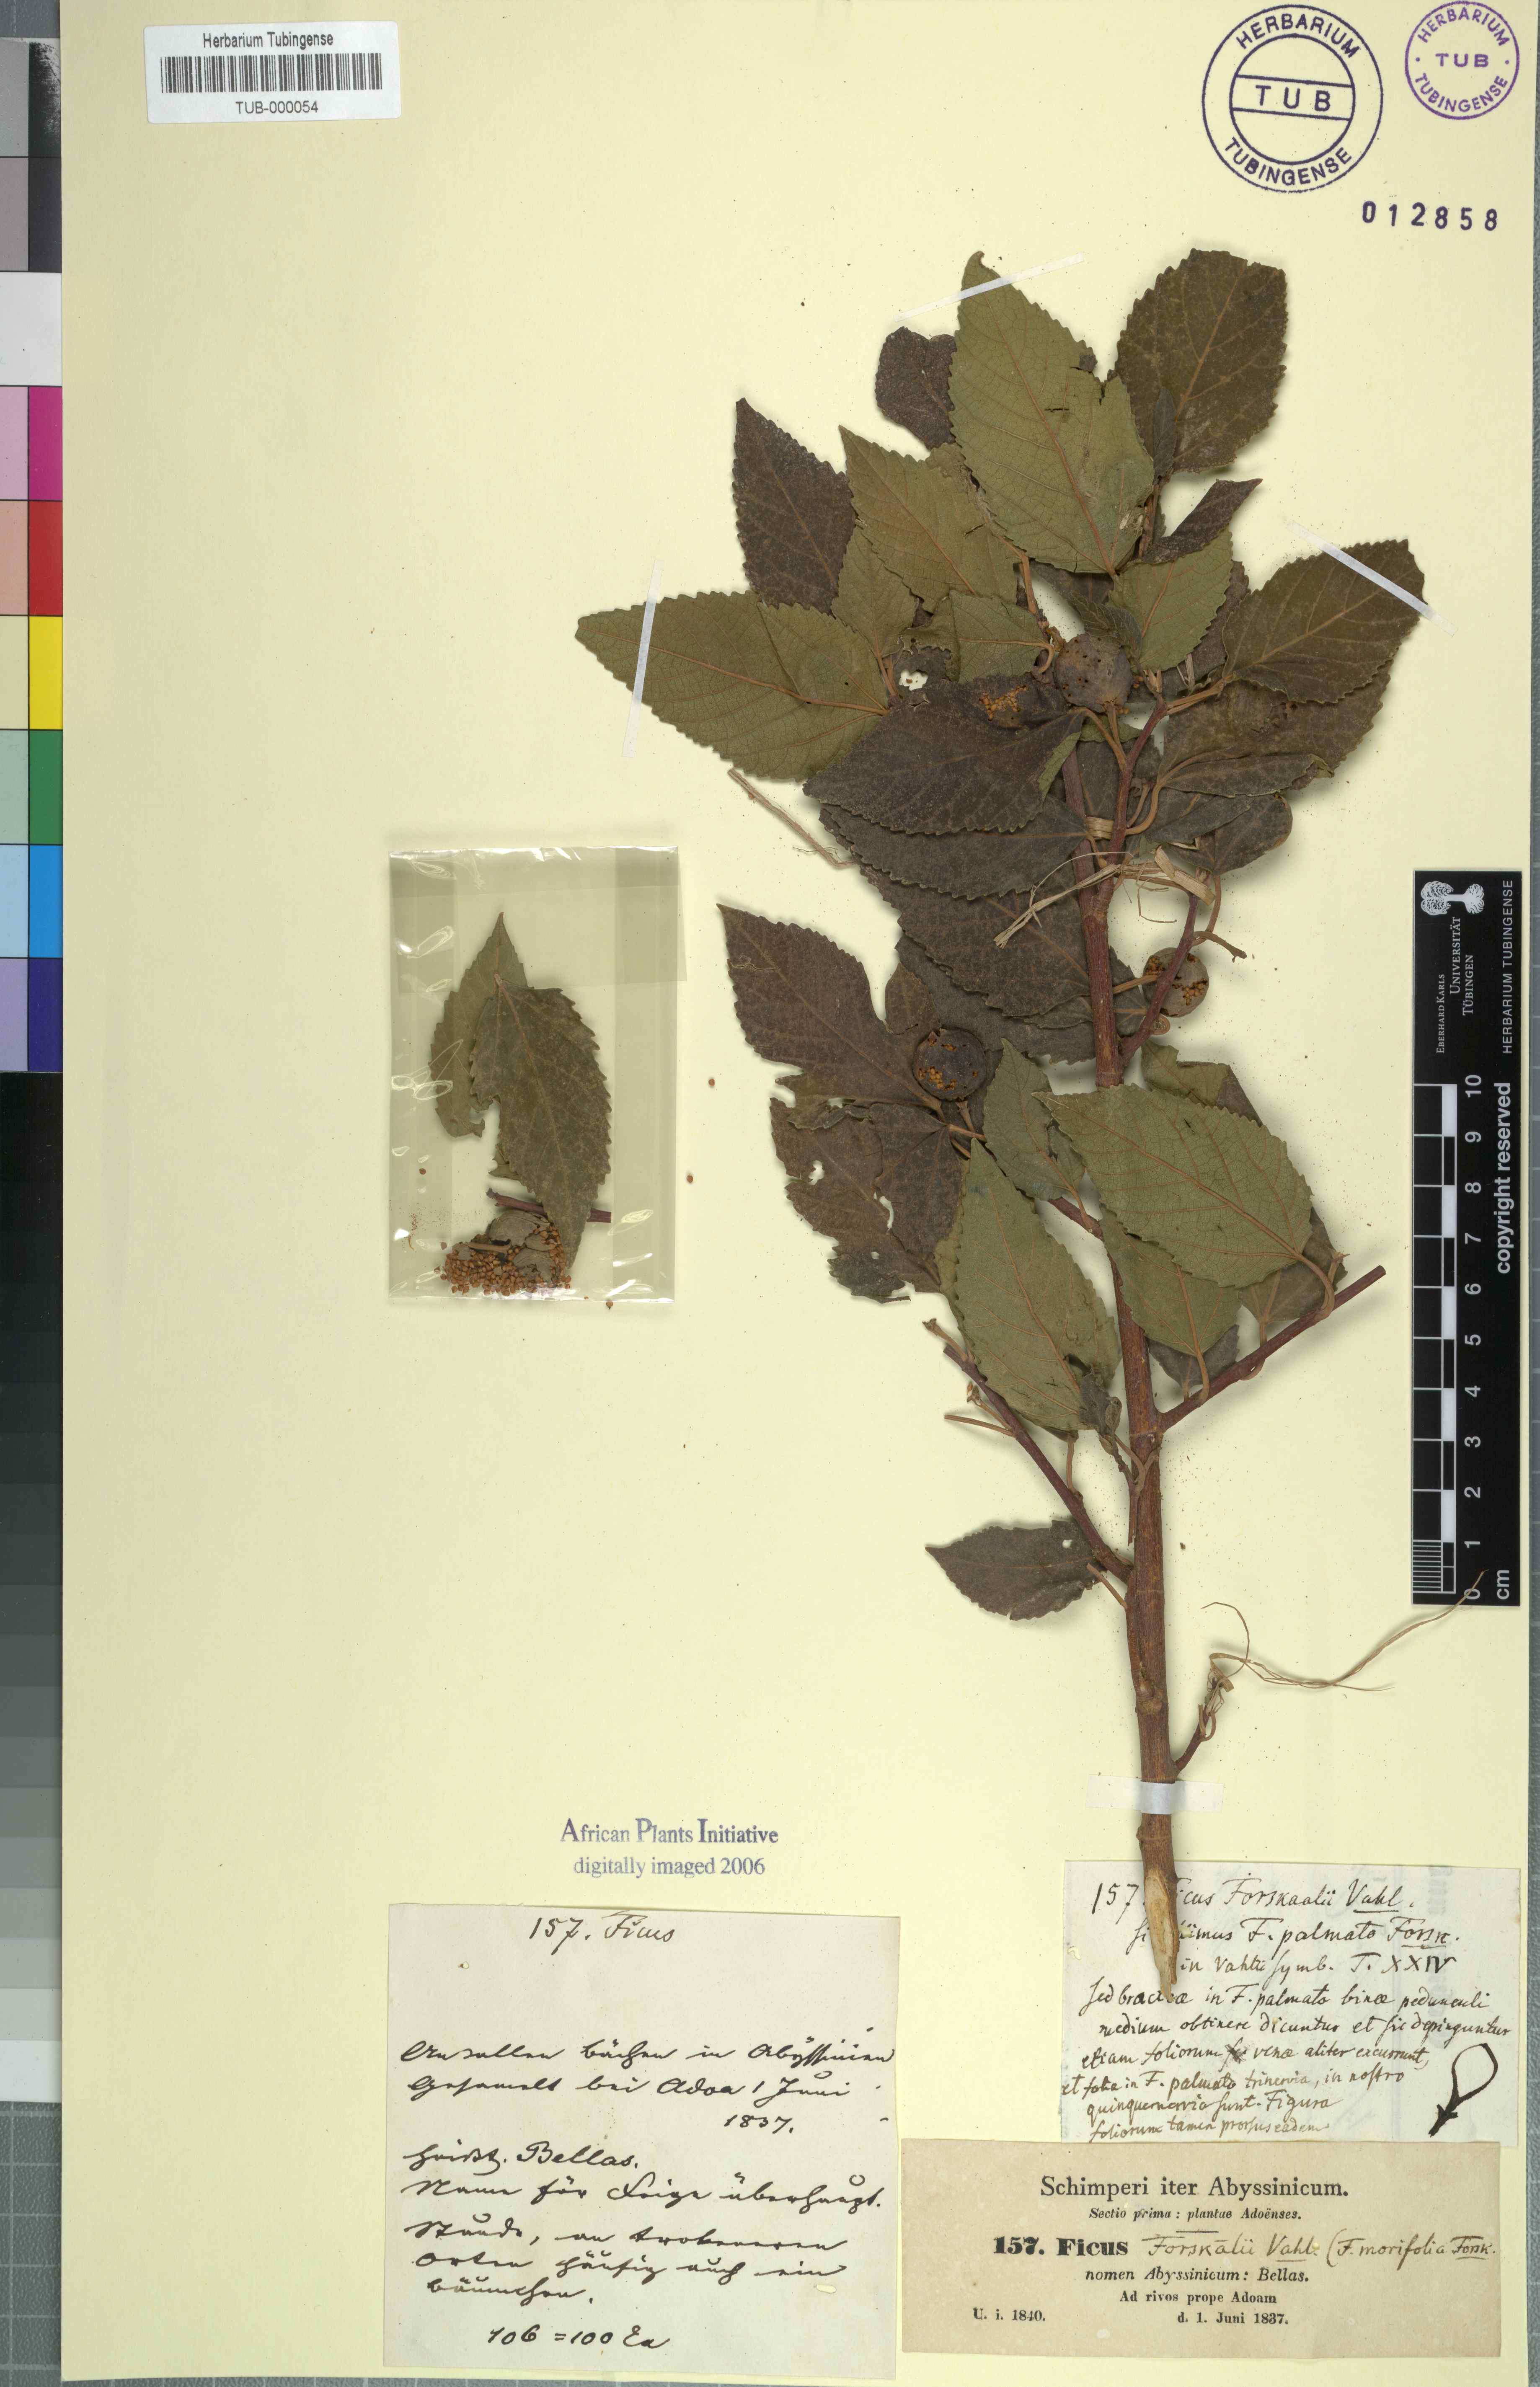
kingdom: Plantae
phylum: Tracheophyta
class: Magnoliopsida
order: Rosales
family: Moraceae
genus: Ficus
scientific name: Ficus palmata
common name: Punjab fig
